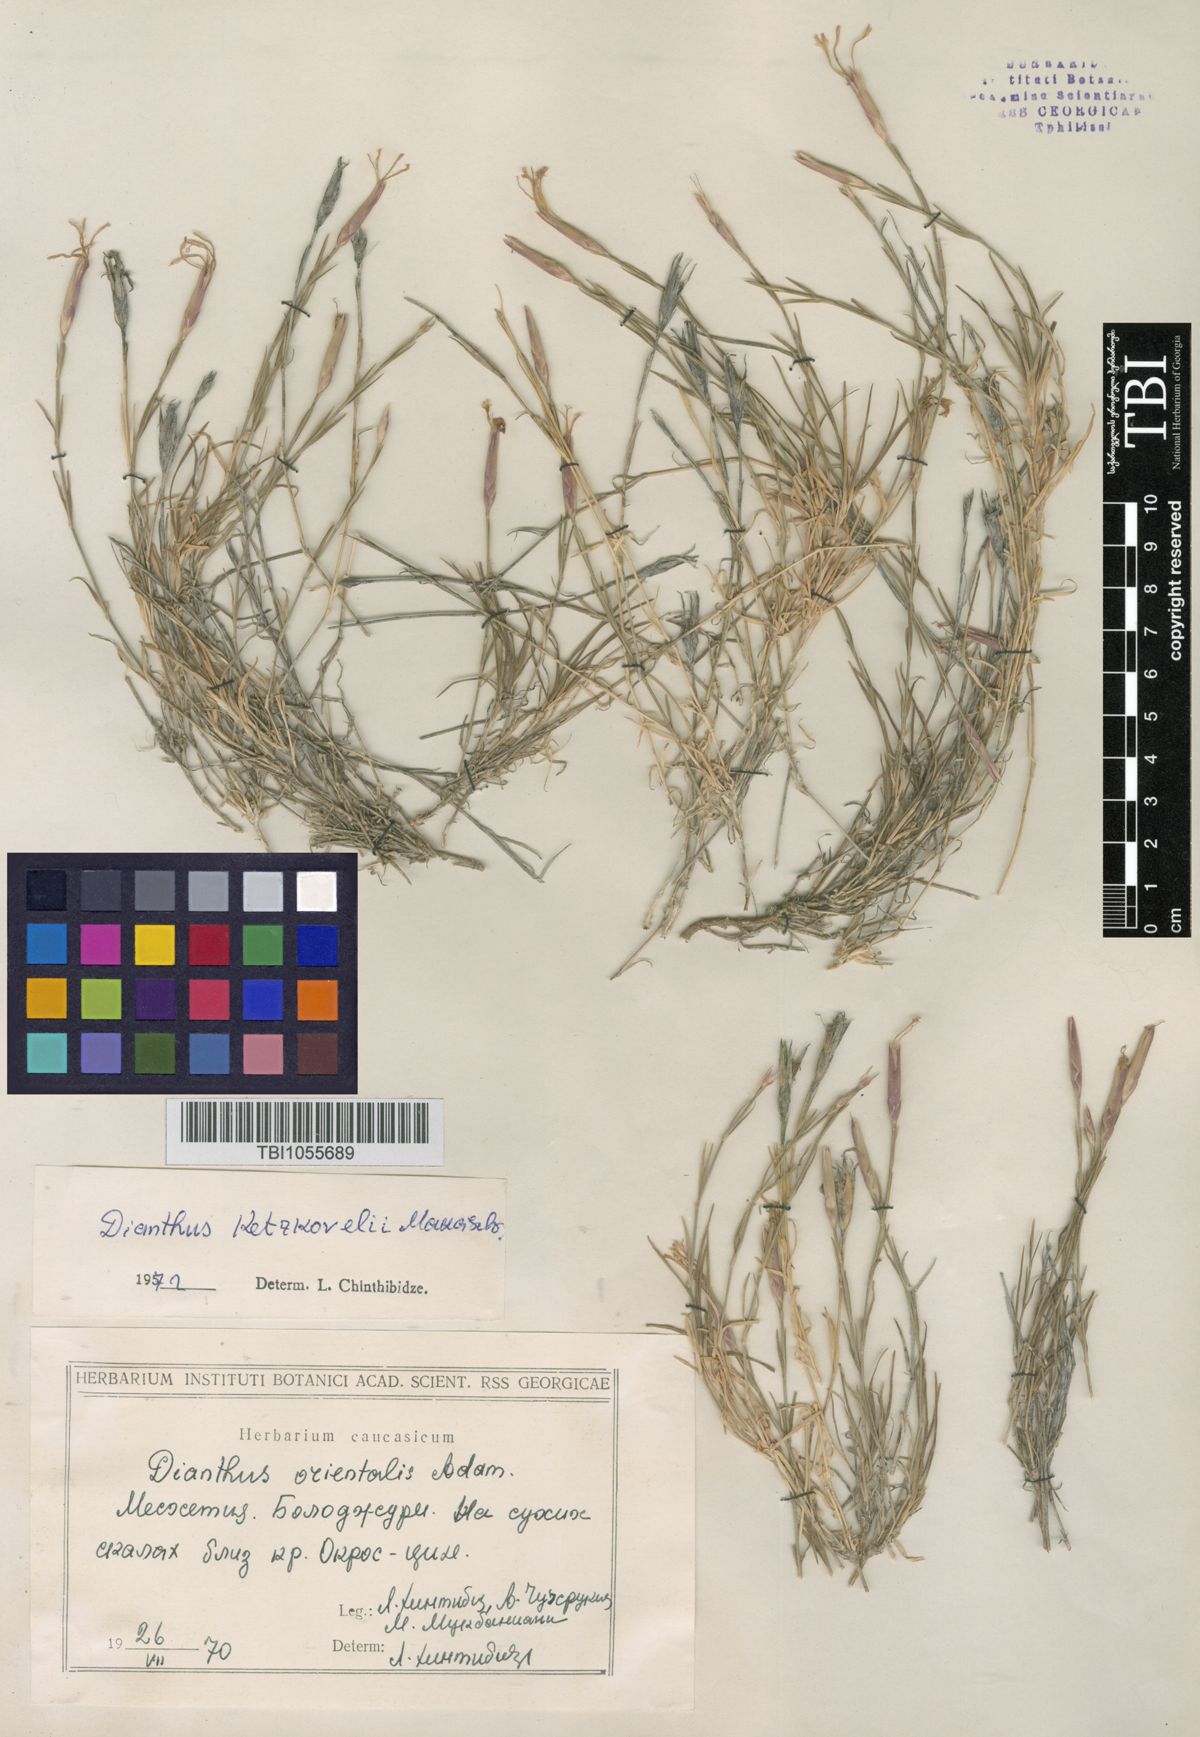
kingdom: Plantae
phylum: Tracheophyta
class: Magnoliopsida
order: Caryophyllales
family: Caryophyllaceae
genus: Dianthus
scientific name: Dianthus orientalis
